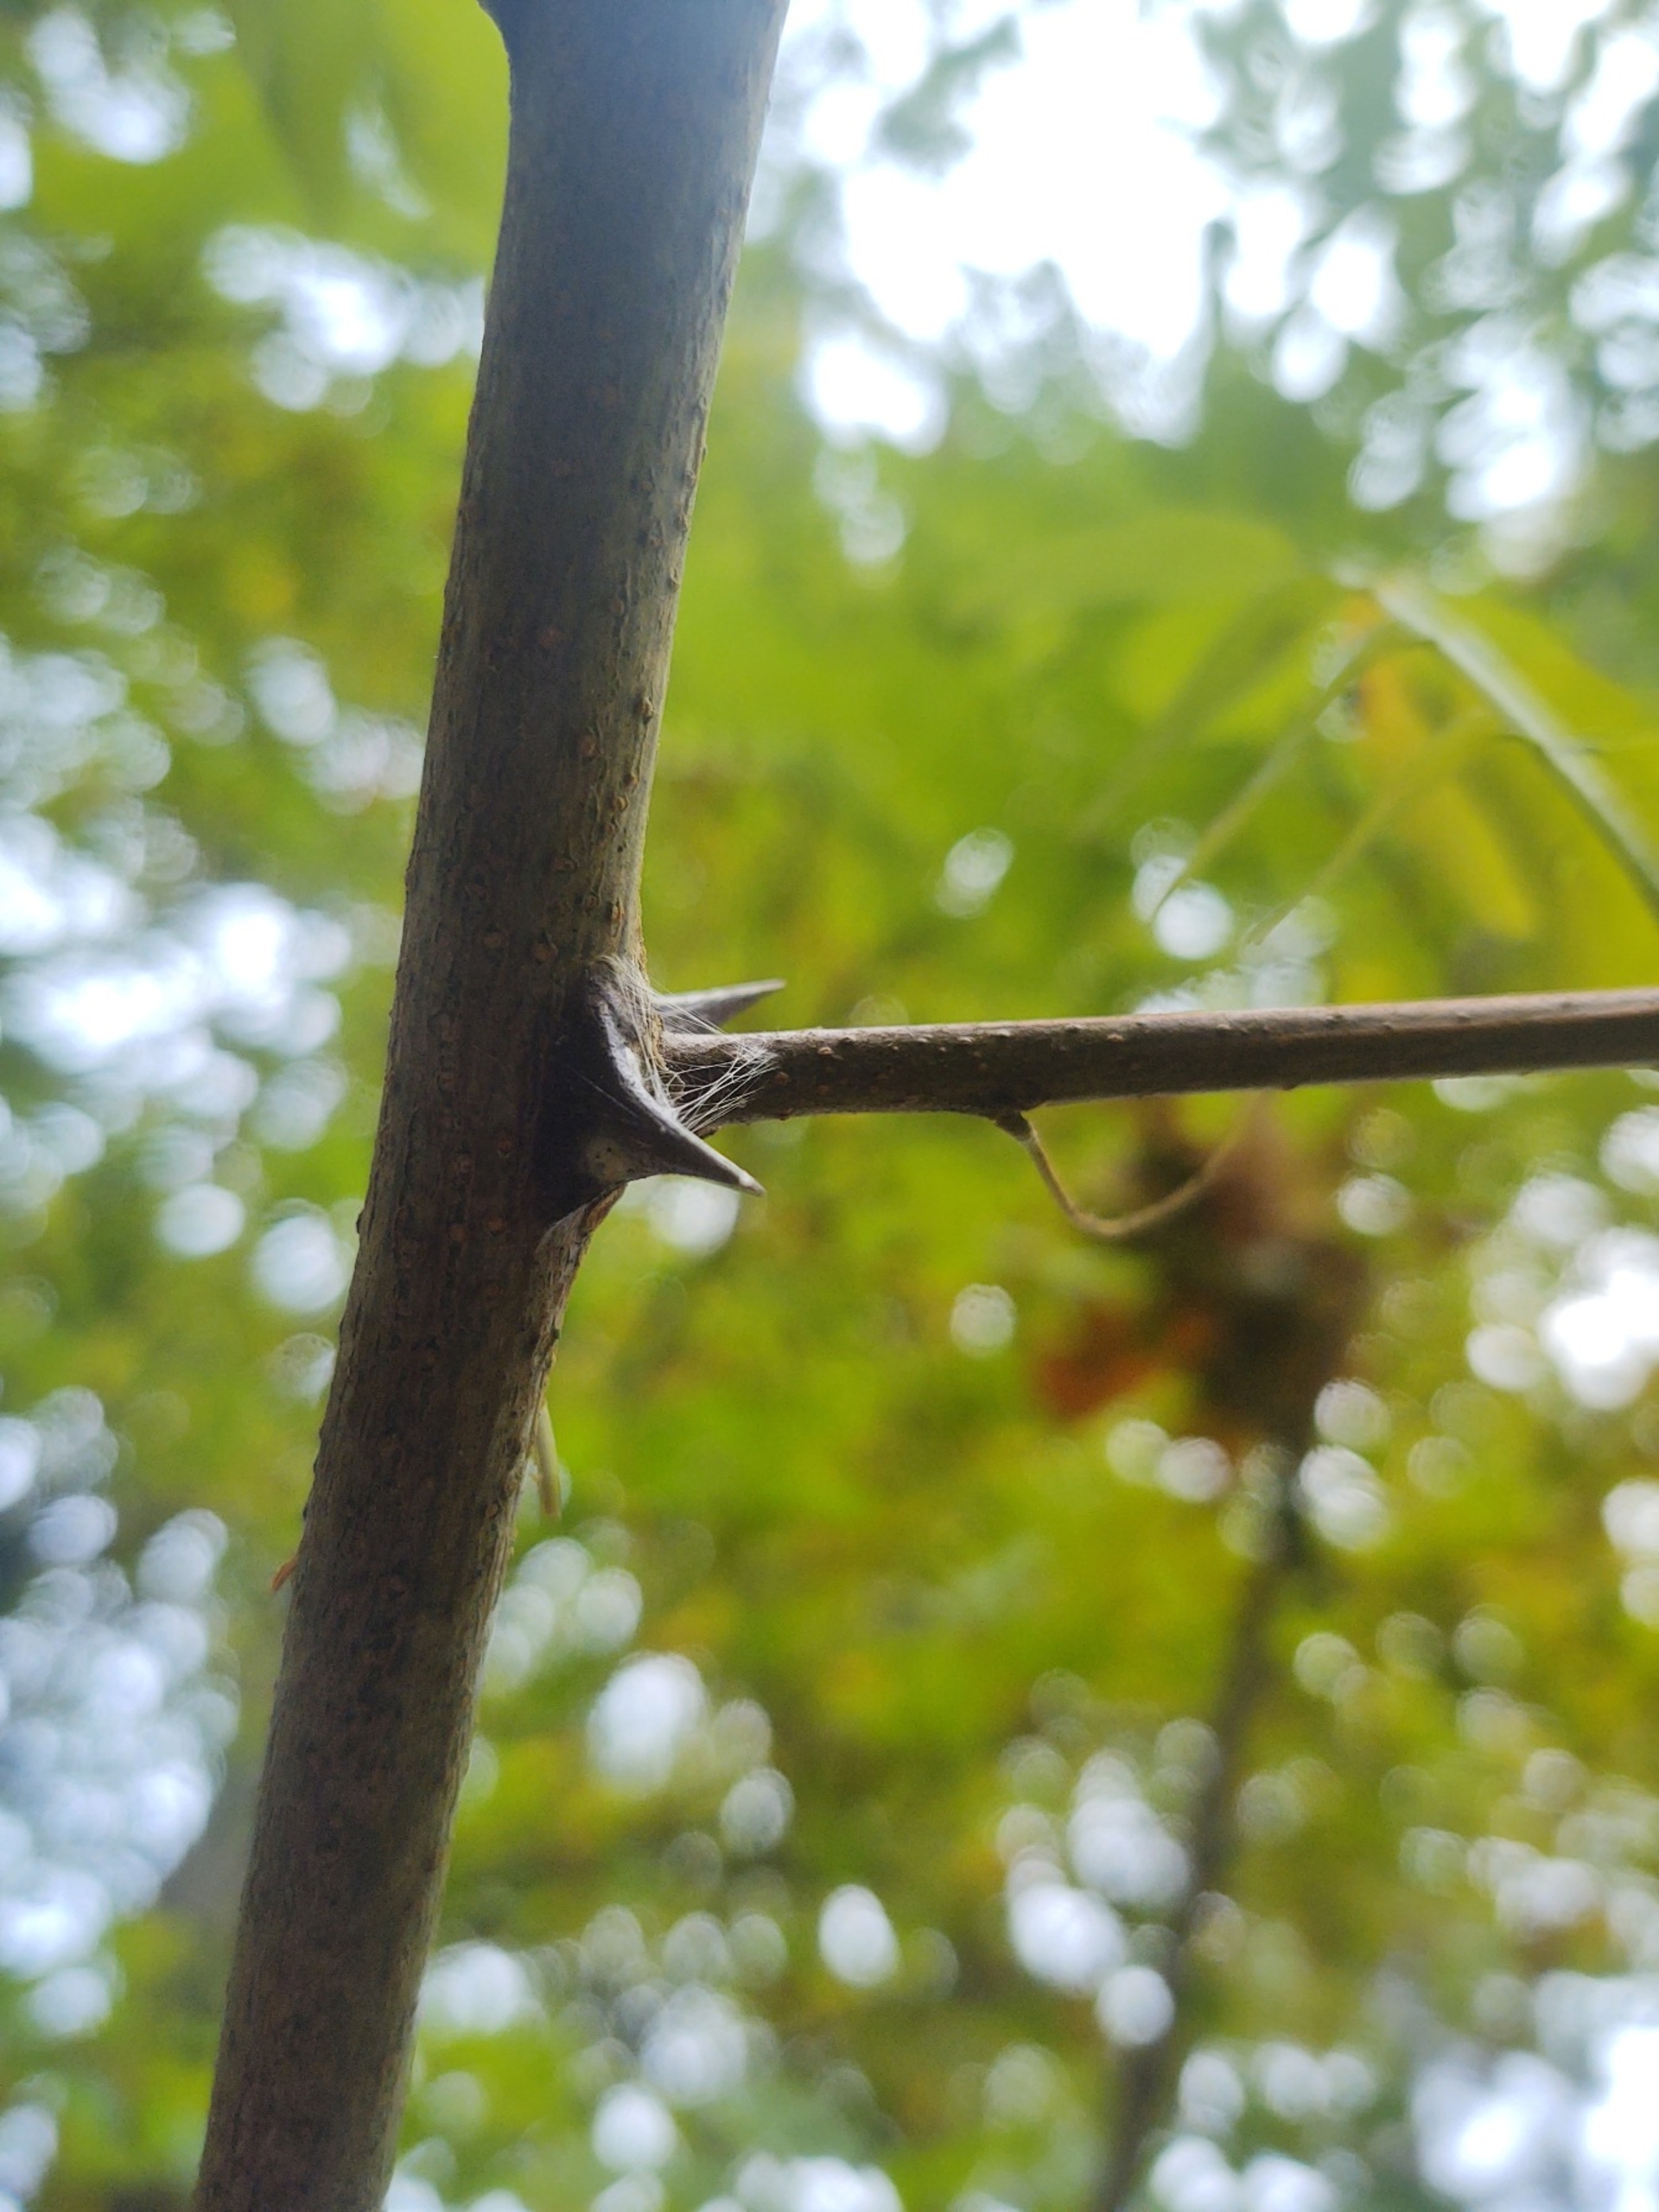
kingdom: Plantae
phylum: Tracheophyta
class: Magnoliopsida
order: Fabales
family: Fabaceae
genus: Robinia
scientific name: Robinia pseudoacacia
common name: Robinie
